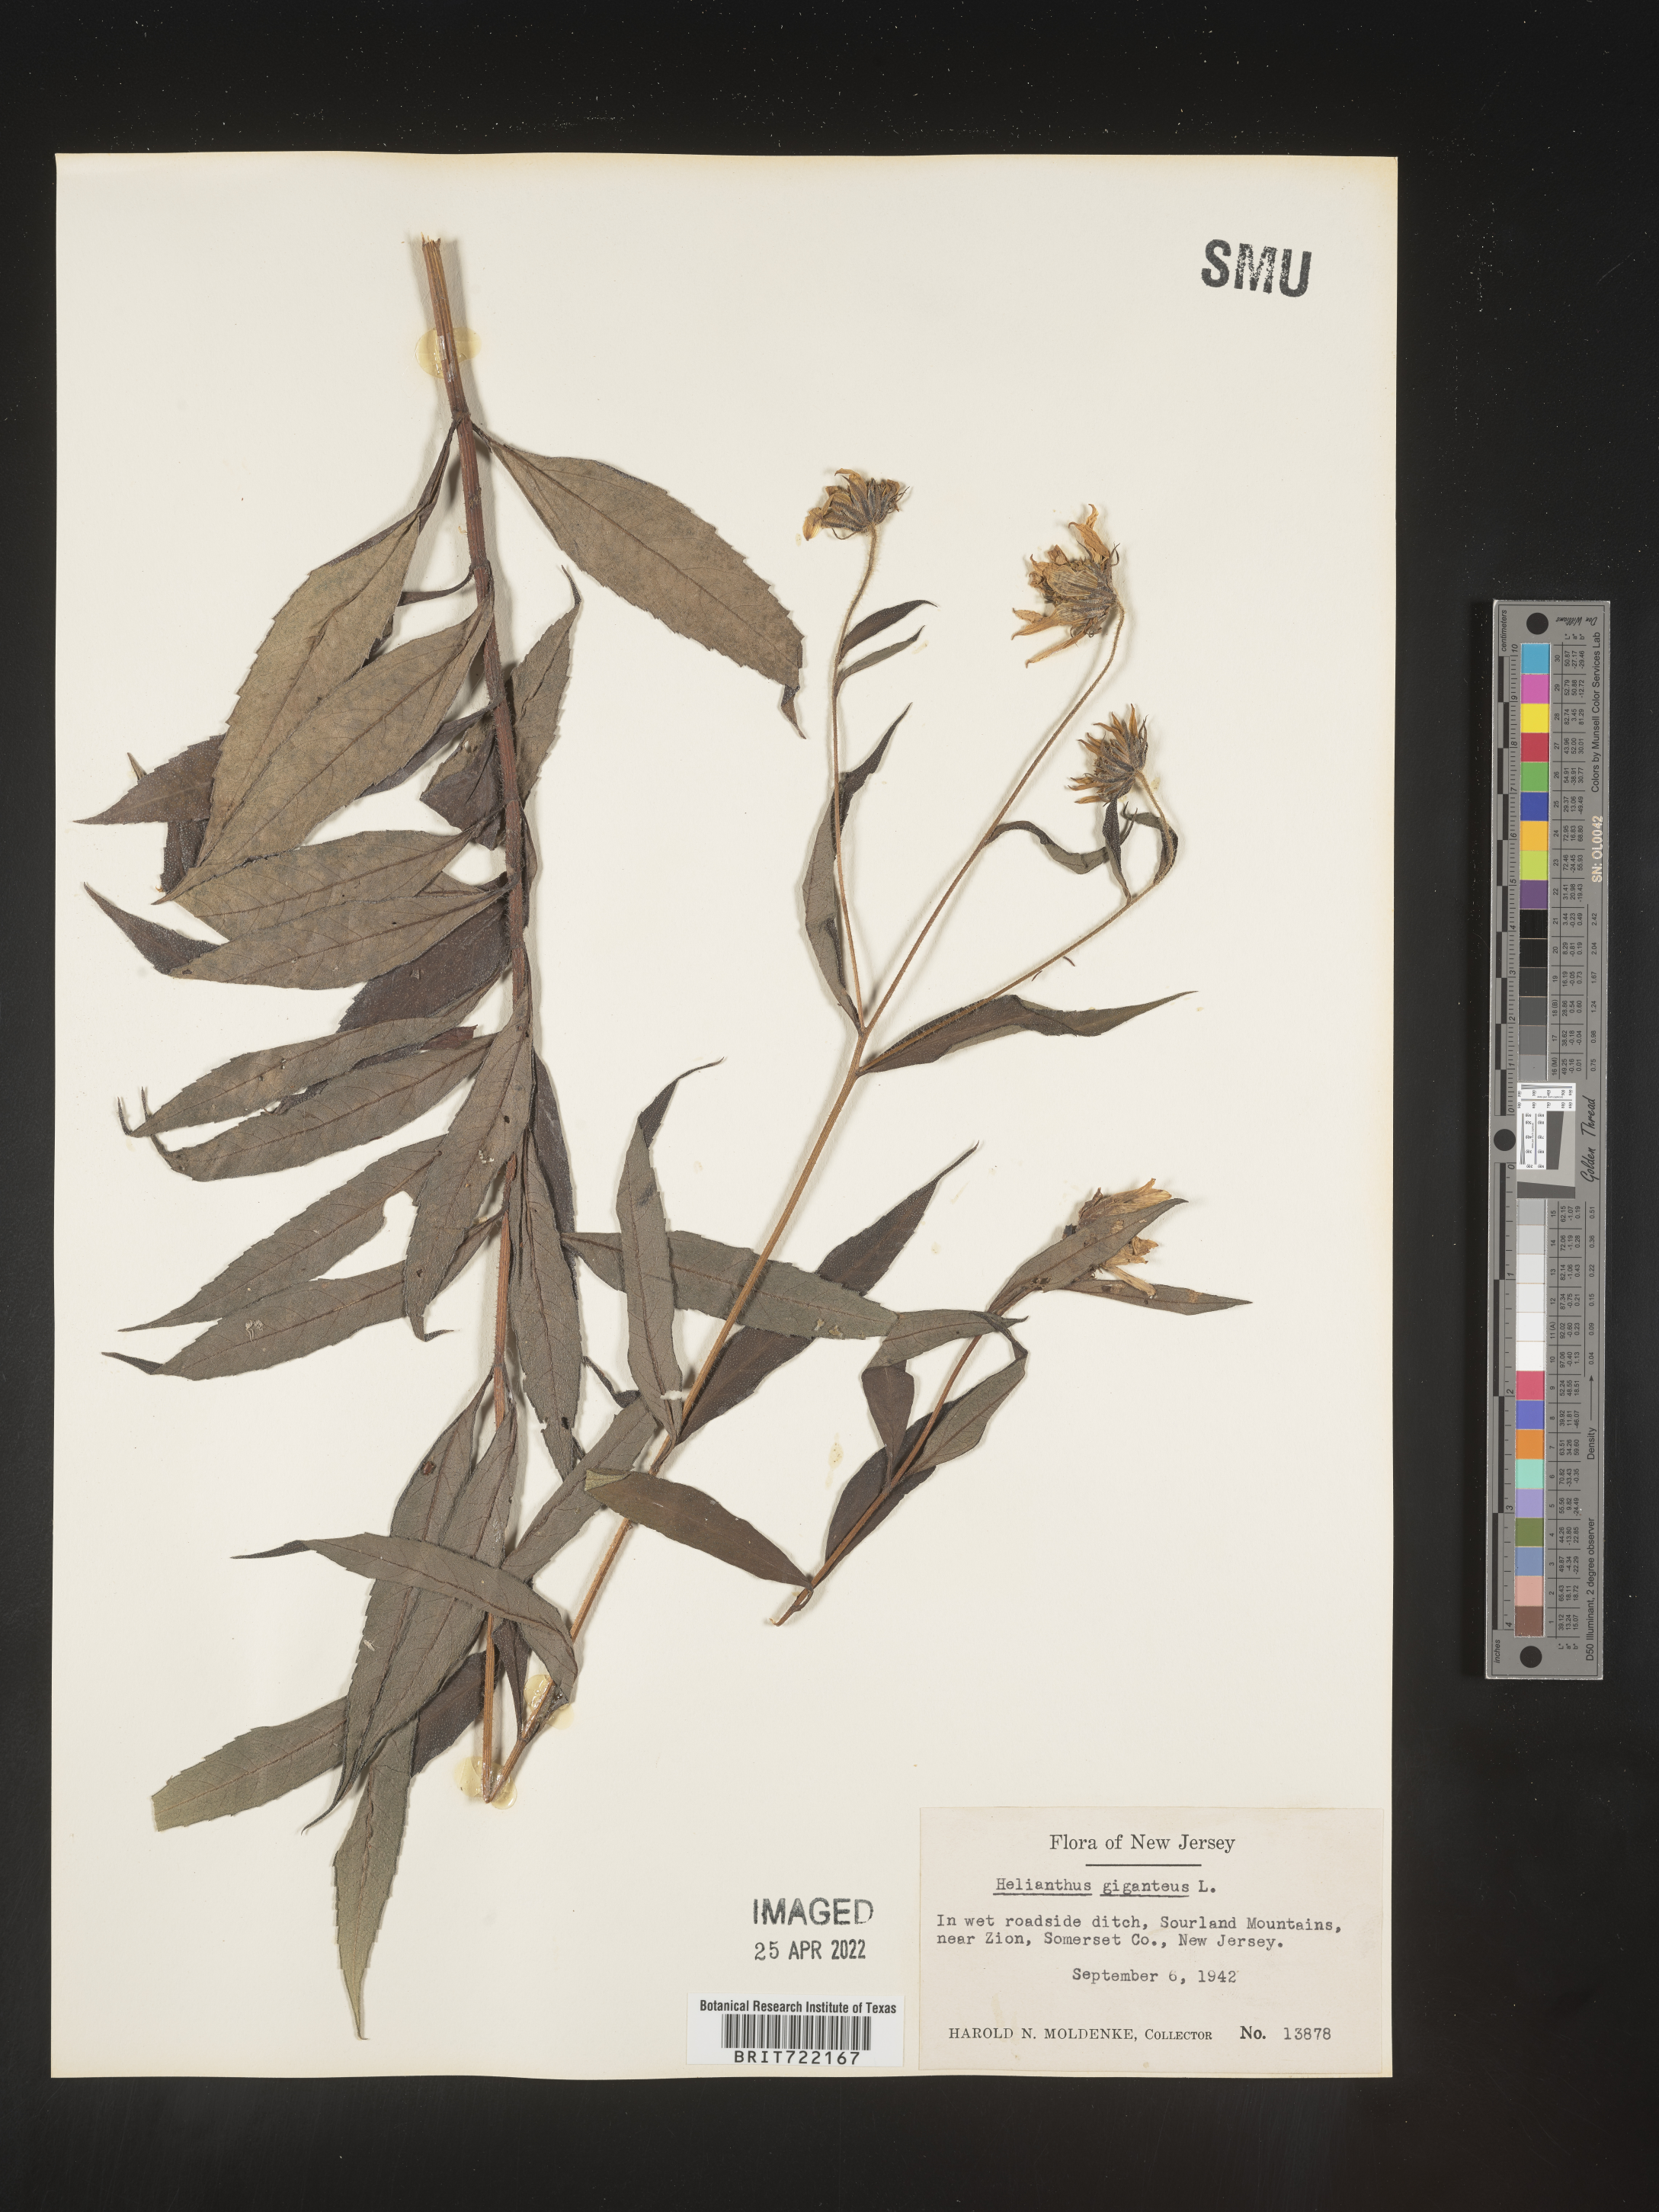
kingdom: Plantae
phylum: Tracheophyta
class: Magnoliopsida
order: Asterales
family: Asteraceae
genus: Helianthus
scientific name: Helianthus giganteus
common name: Giant sunflower
